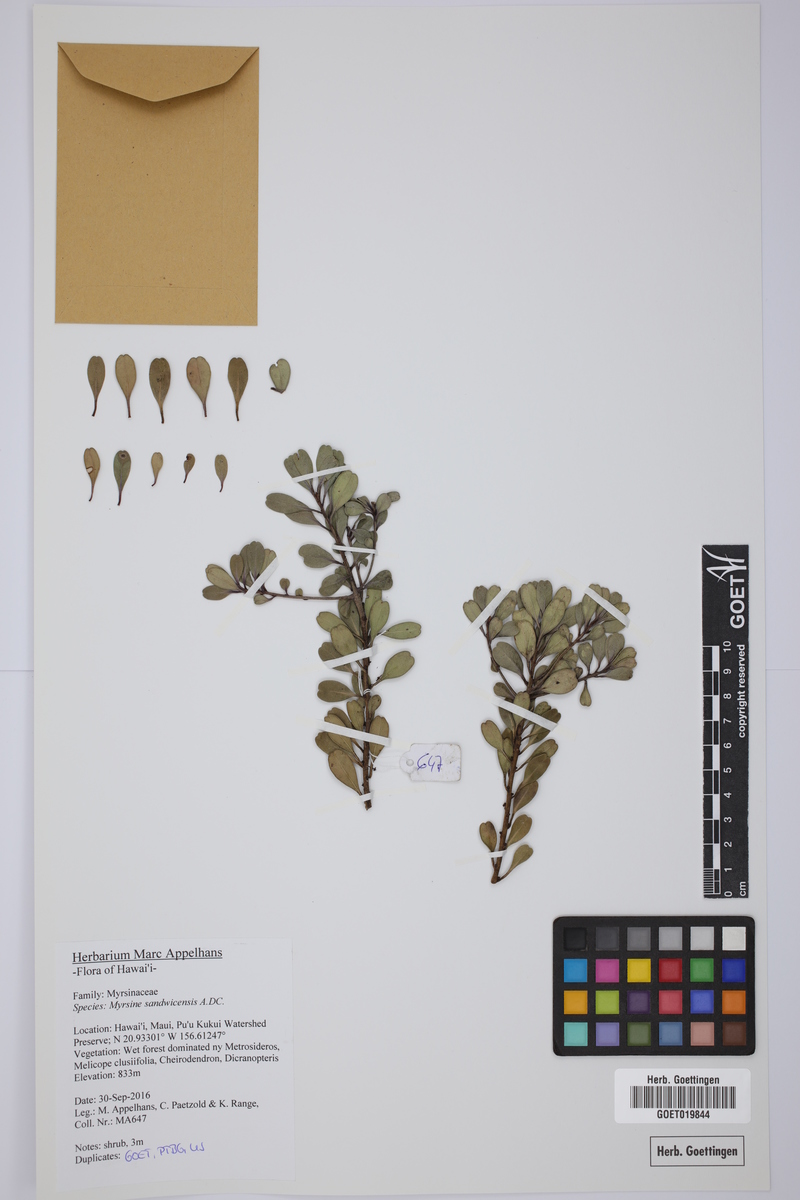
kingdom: Plantae
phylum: Tracheophyta
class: Magnoliopsida
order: Ericales
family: Primulaceae
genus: Myrsine
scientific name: Myrsine sandwicensis
